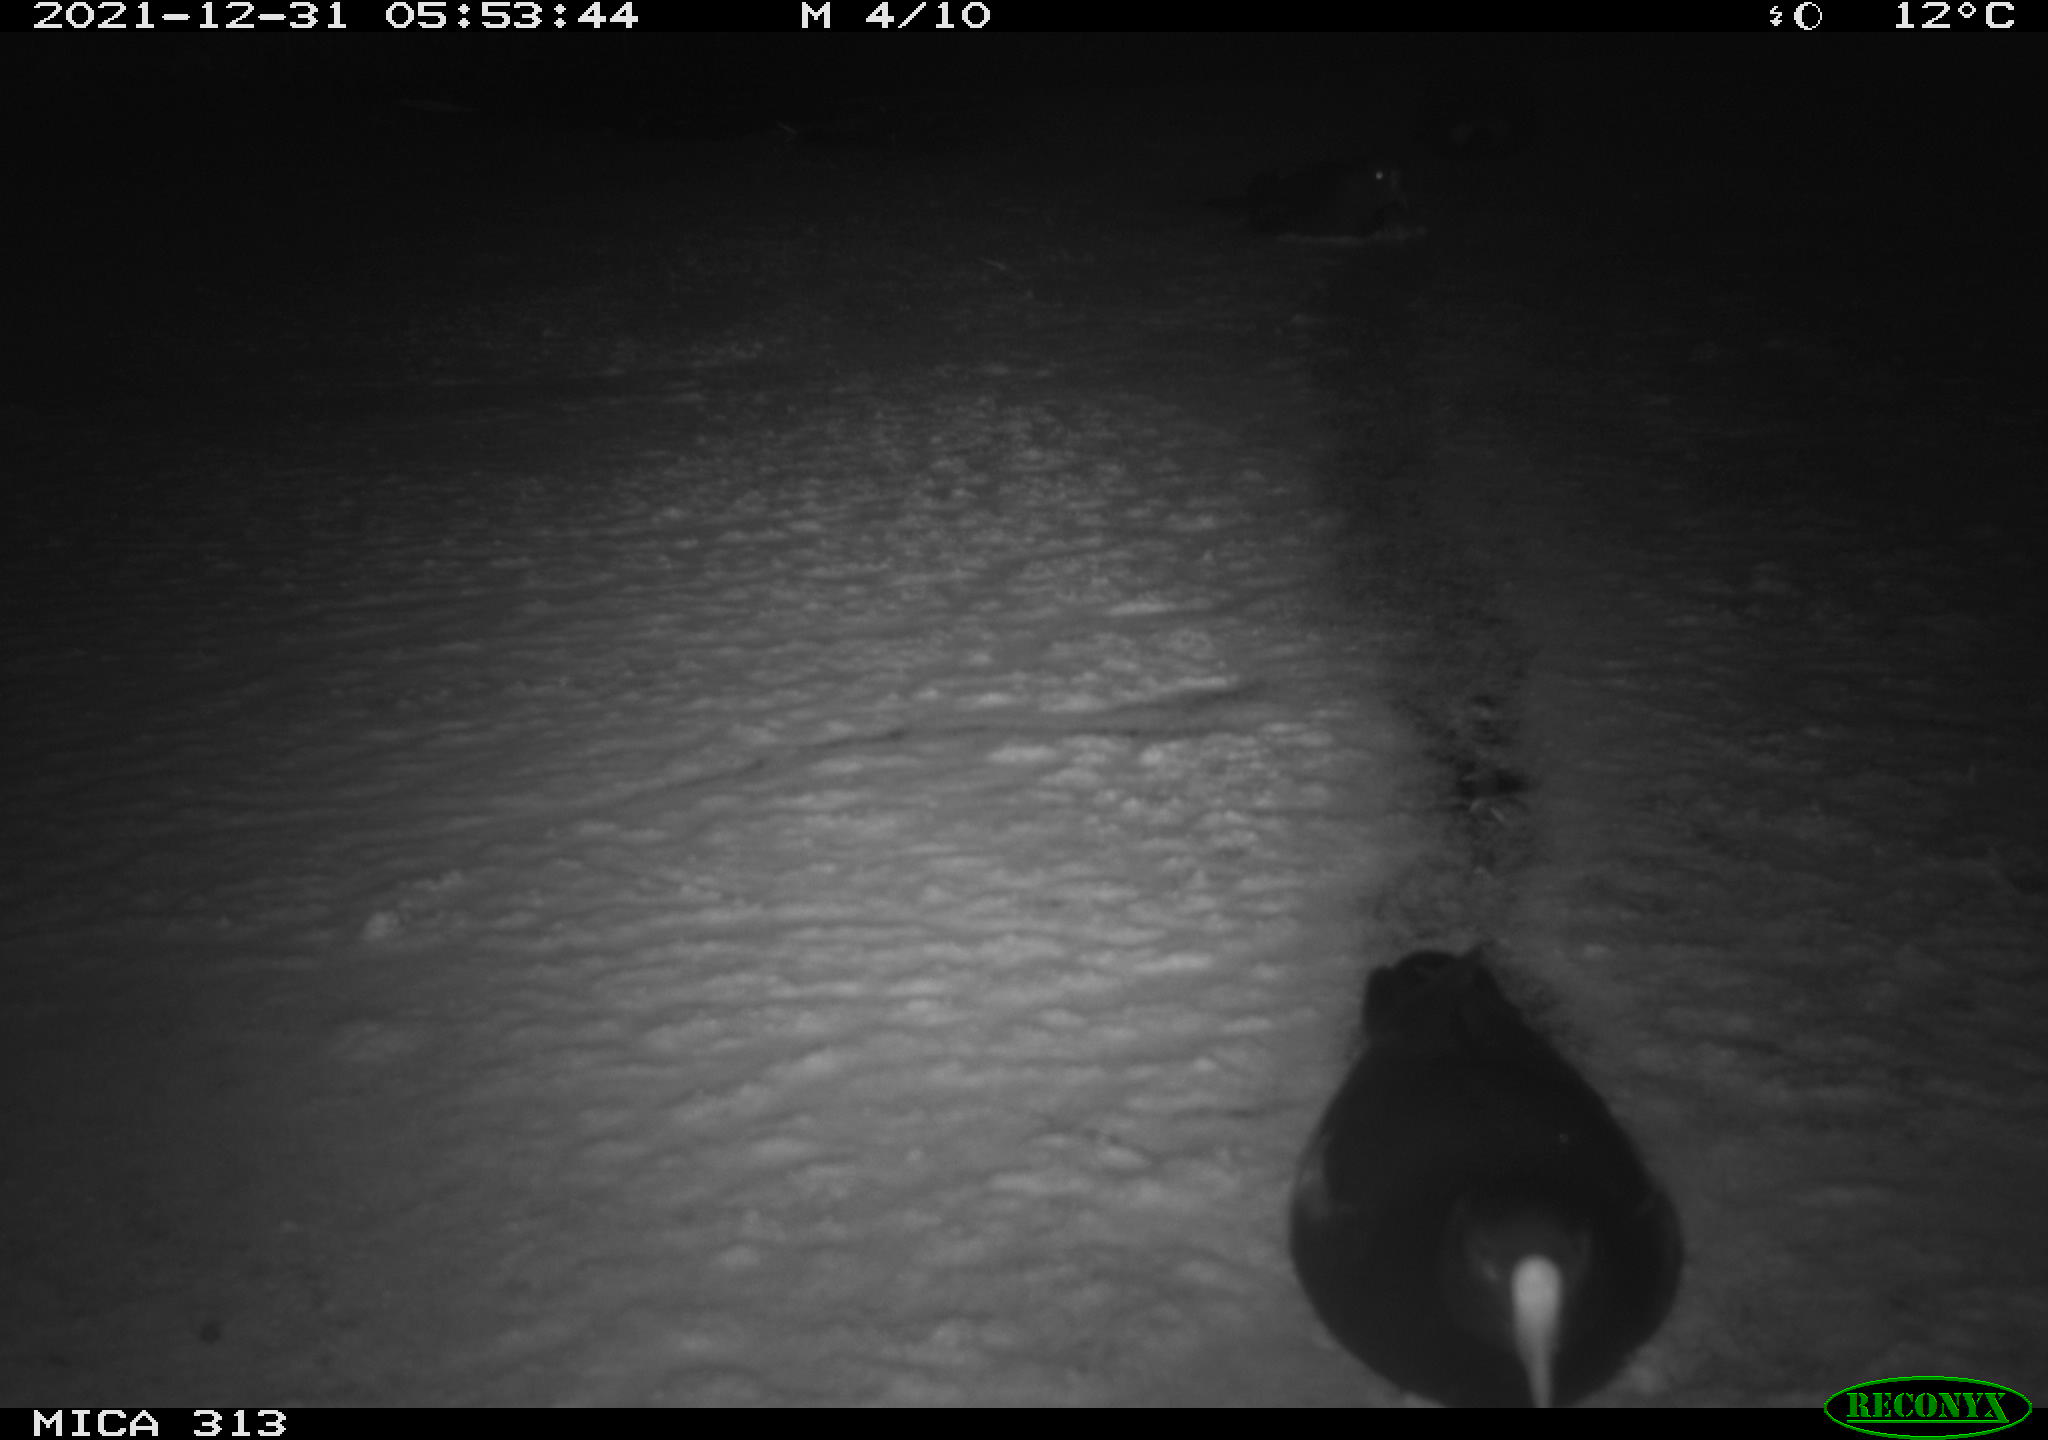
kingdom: Animalia
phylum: Chordata
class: Aves
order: Gruiformes
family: Rallidae
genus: Fulica
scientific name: Fulica atra
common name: Eurasian coot
